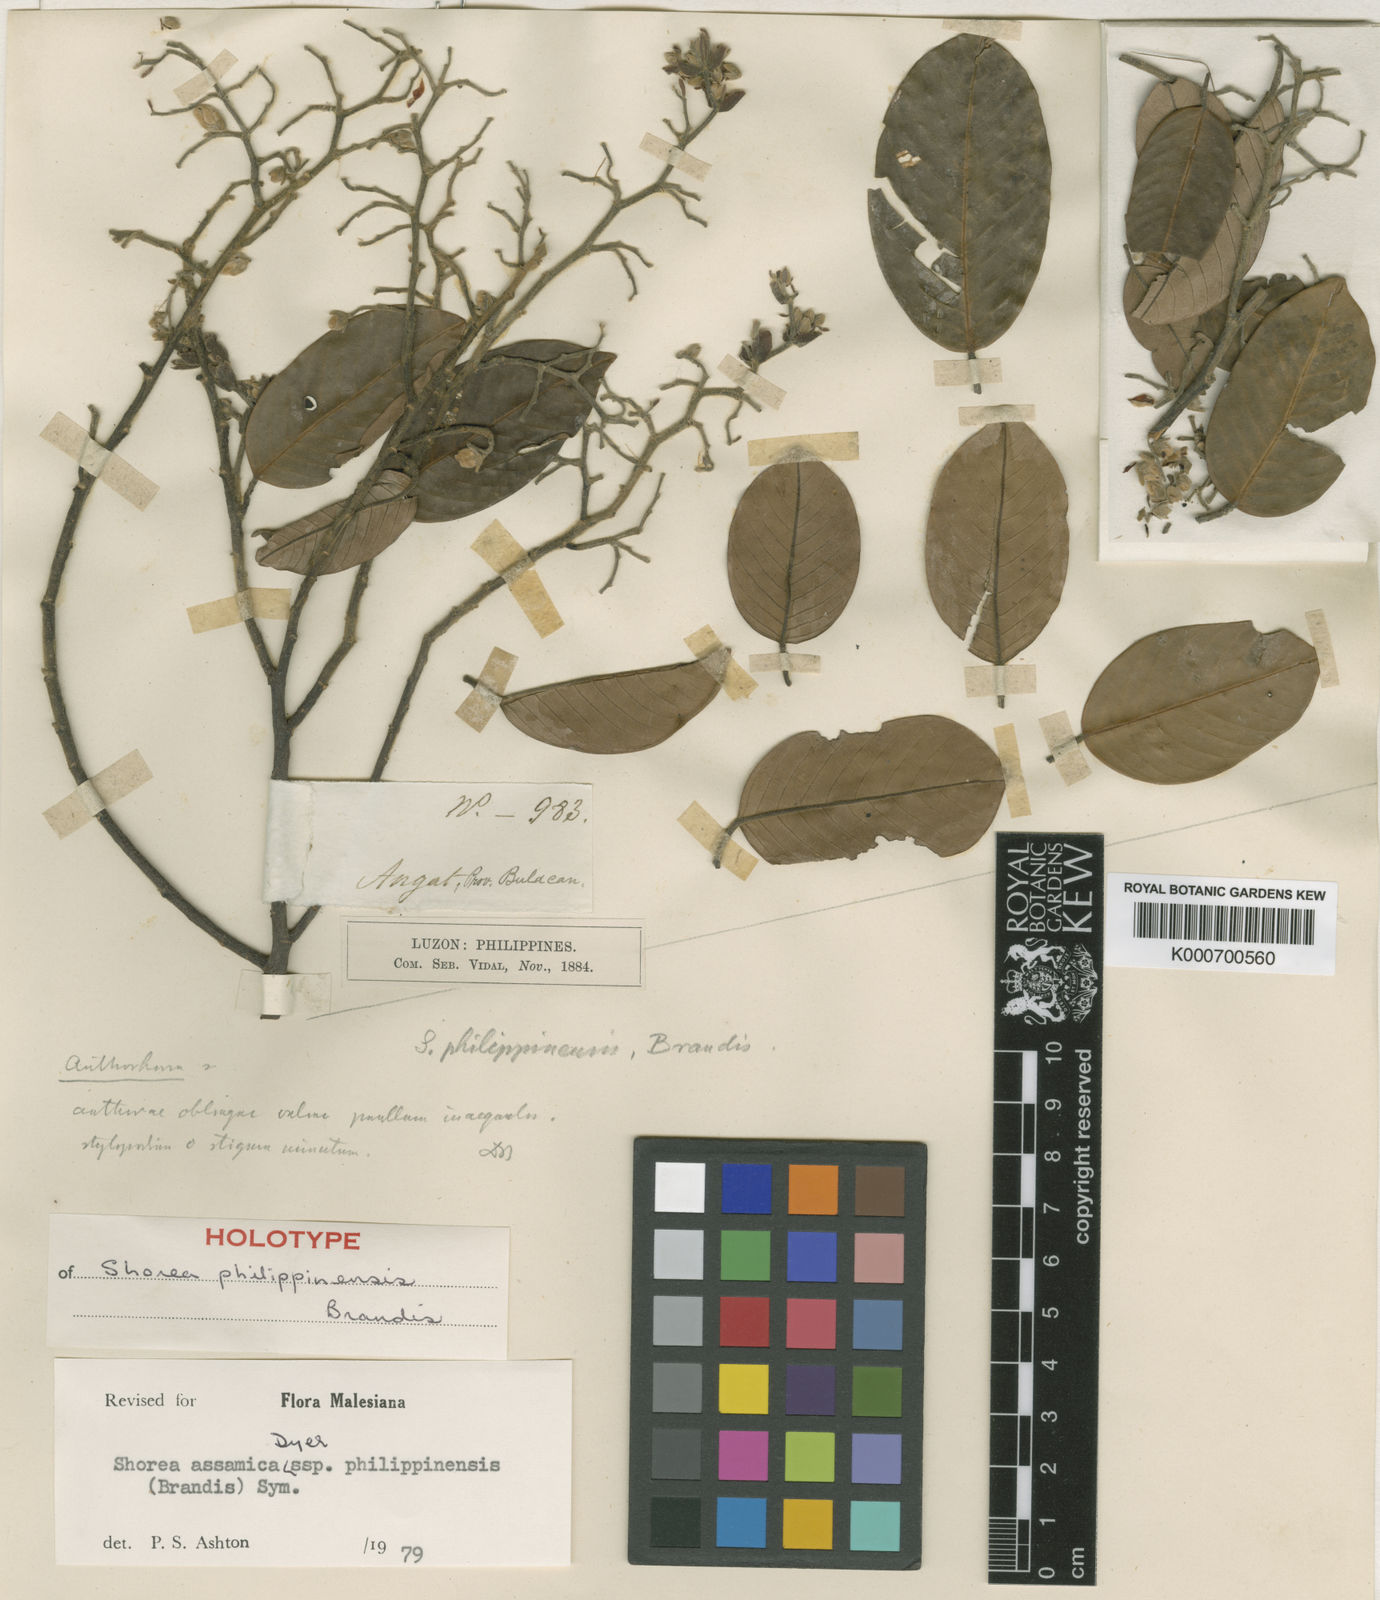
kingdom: Plantae
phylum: Tracheophyta
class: Magnoliopsida
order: Malvales
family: Dipterocarpaceae
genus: Anthoshorea
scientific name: Anthoshorea assamica
